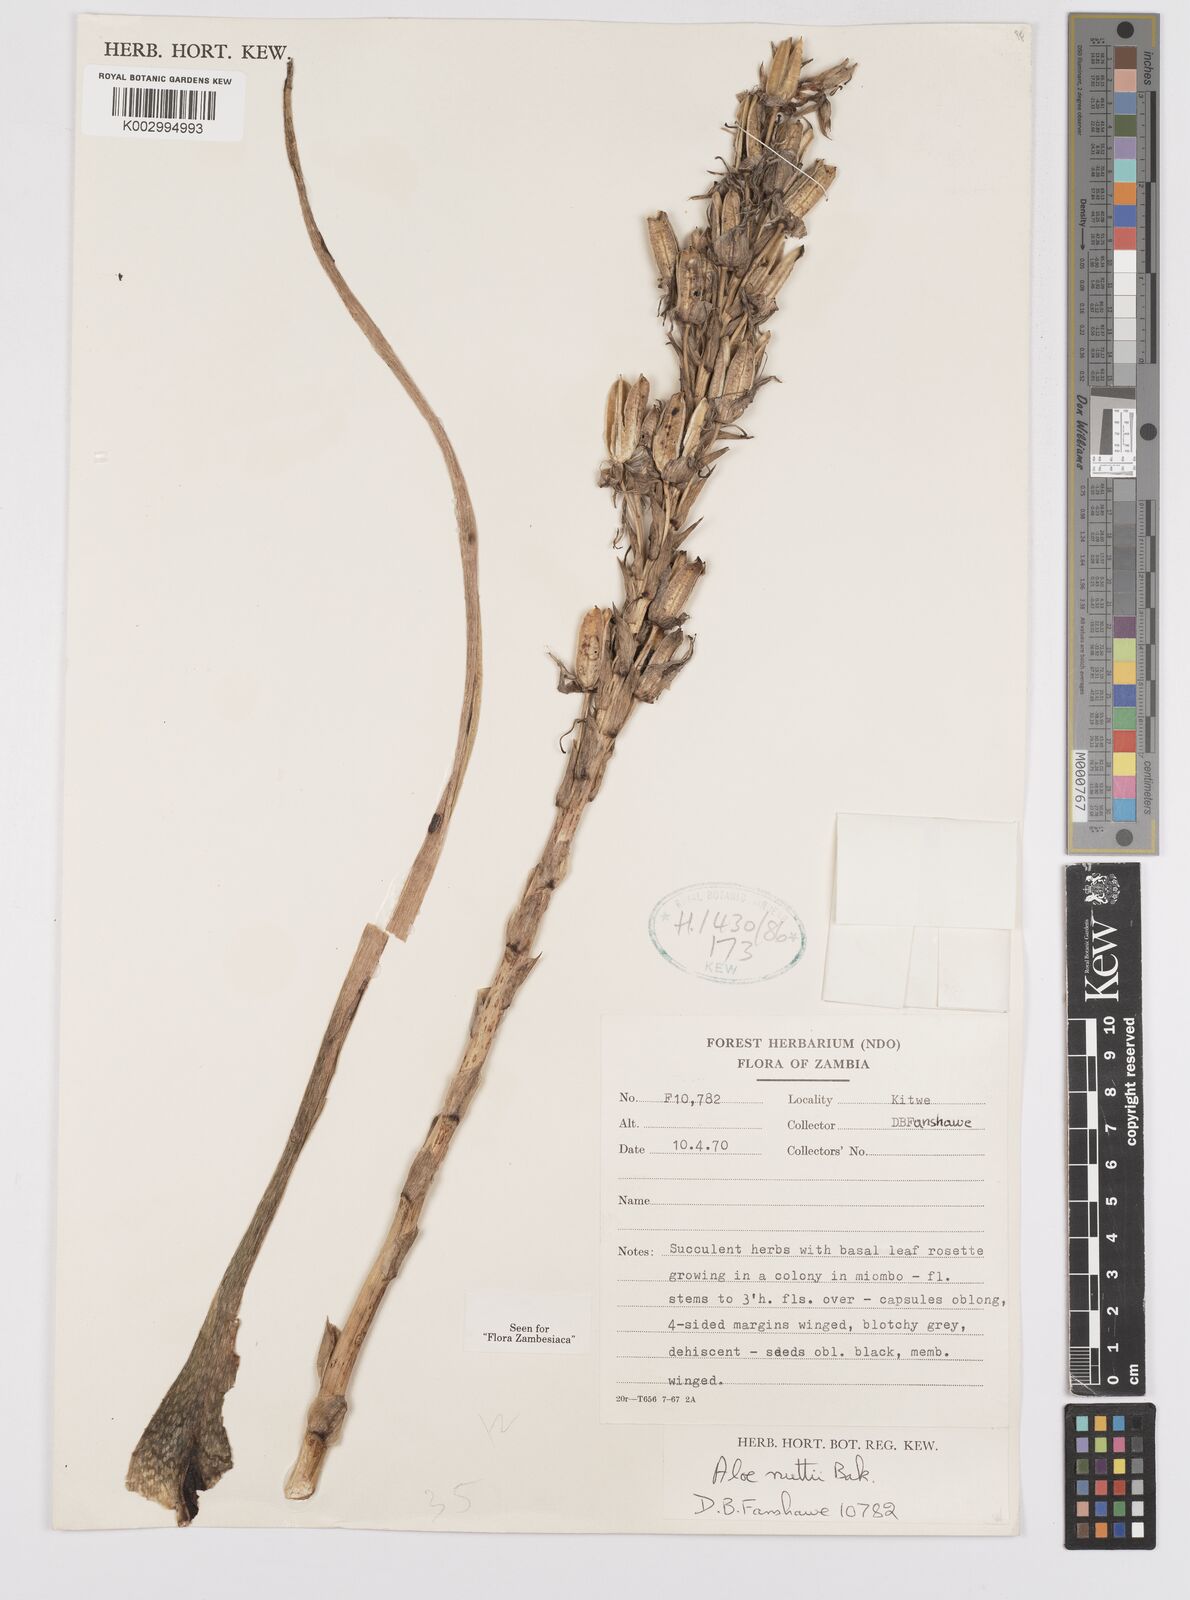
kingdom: Plantae
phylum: Tracheophyta
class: Liliopsida
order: Asparagales
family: Asphodelaceae
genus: Aloe
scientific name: Aloe nuttii
